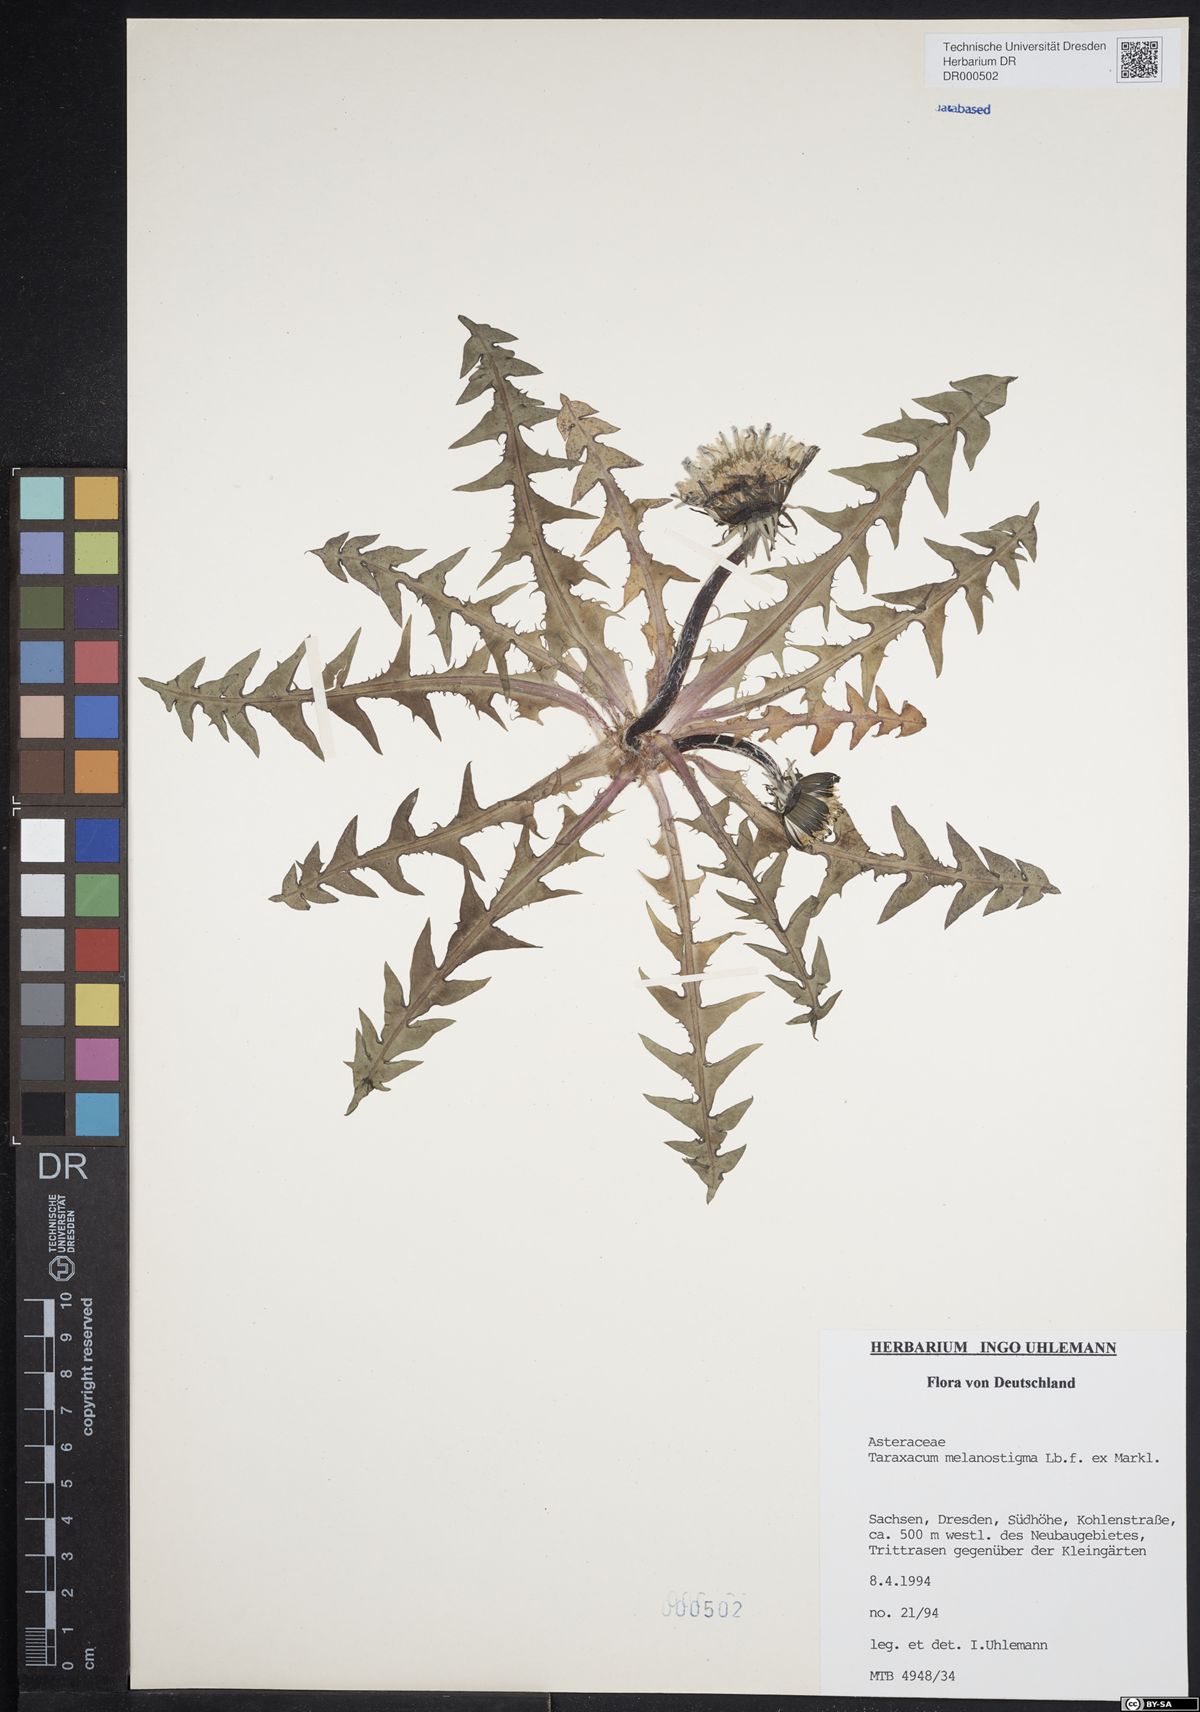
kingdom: Plantae
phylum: Tracheophyta
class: Magnoliopsida
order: Asterales
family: Asteraceae
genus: Taraxacum
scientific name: Taraxacum melanostigma
